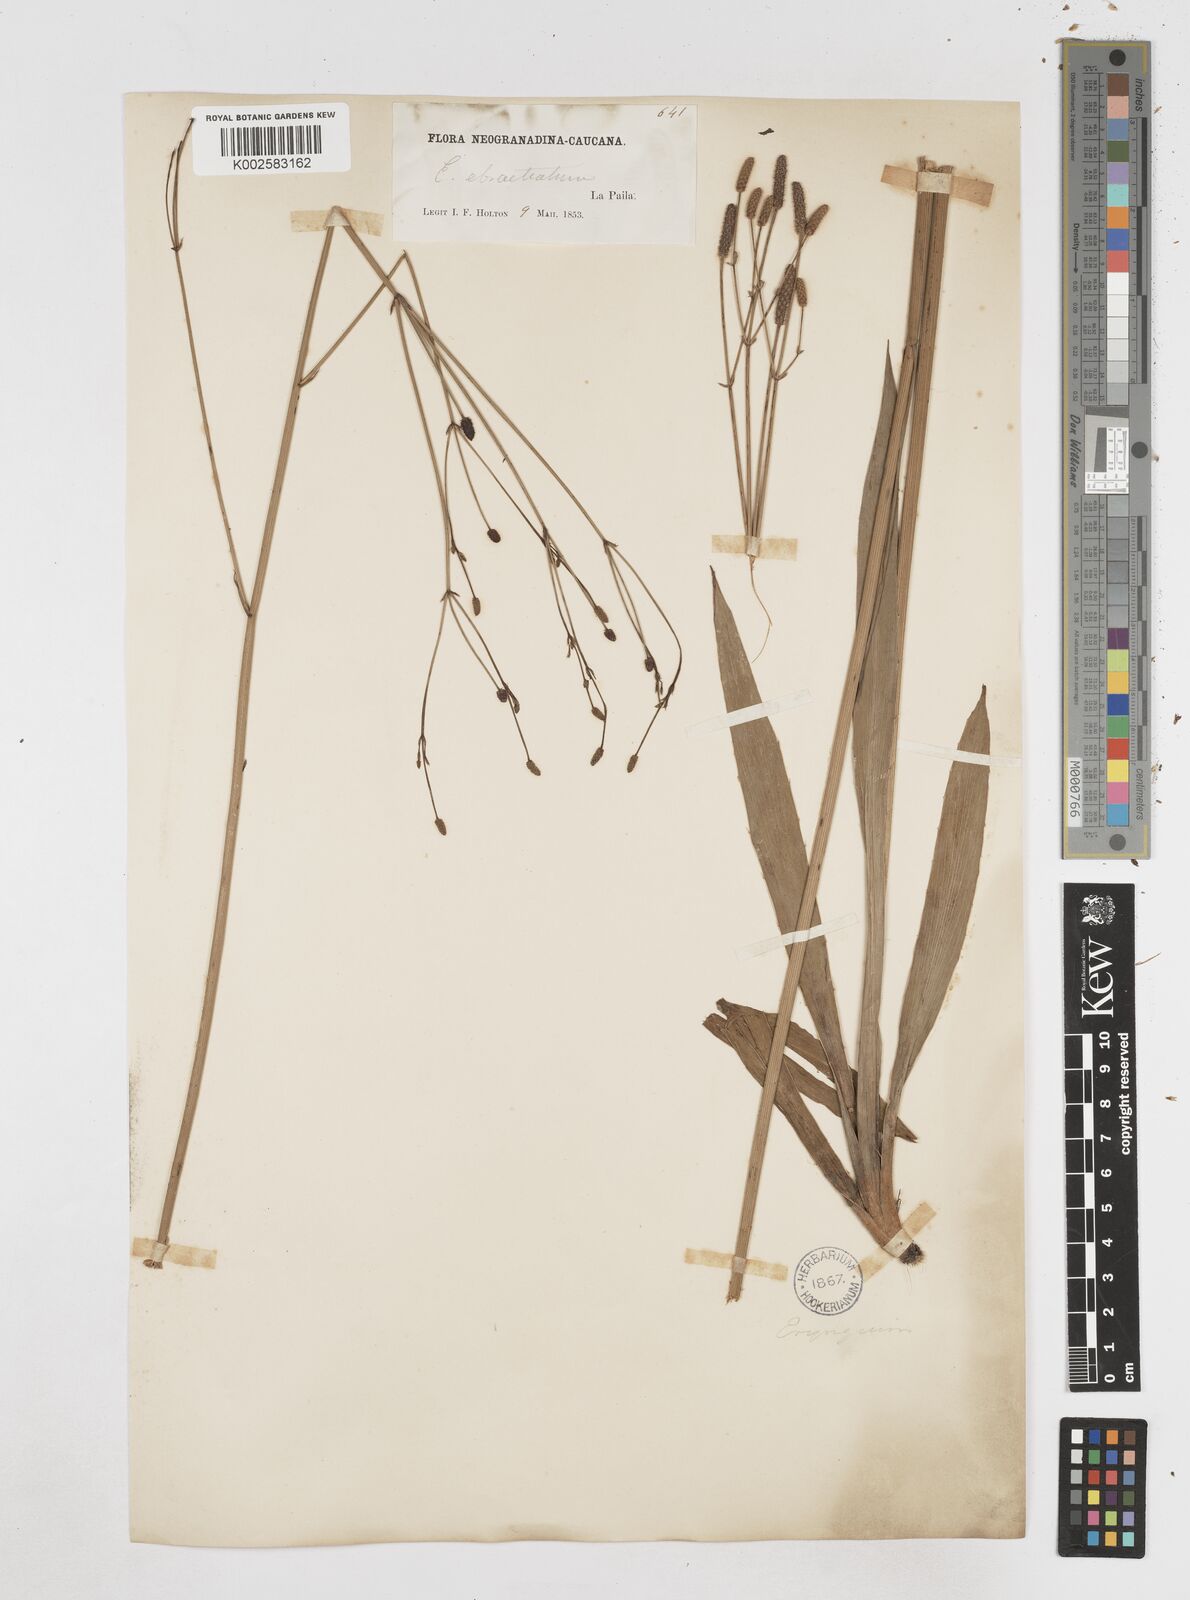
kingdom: Plantae
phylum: Tracheophyta
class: Magnoliopsida
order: Apiales
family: Apiaceae
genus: Eryngium
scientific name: Eryngium ebracteatum
